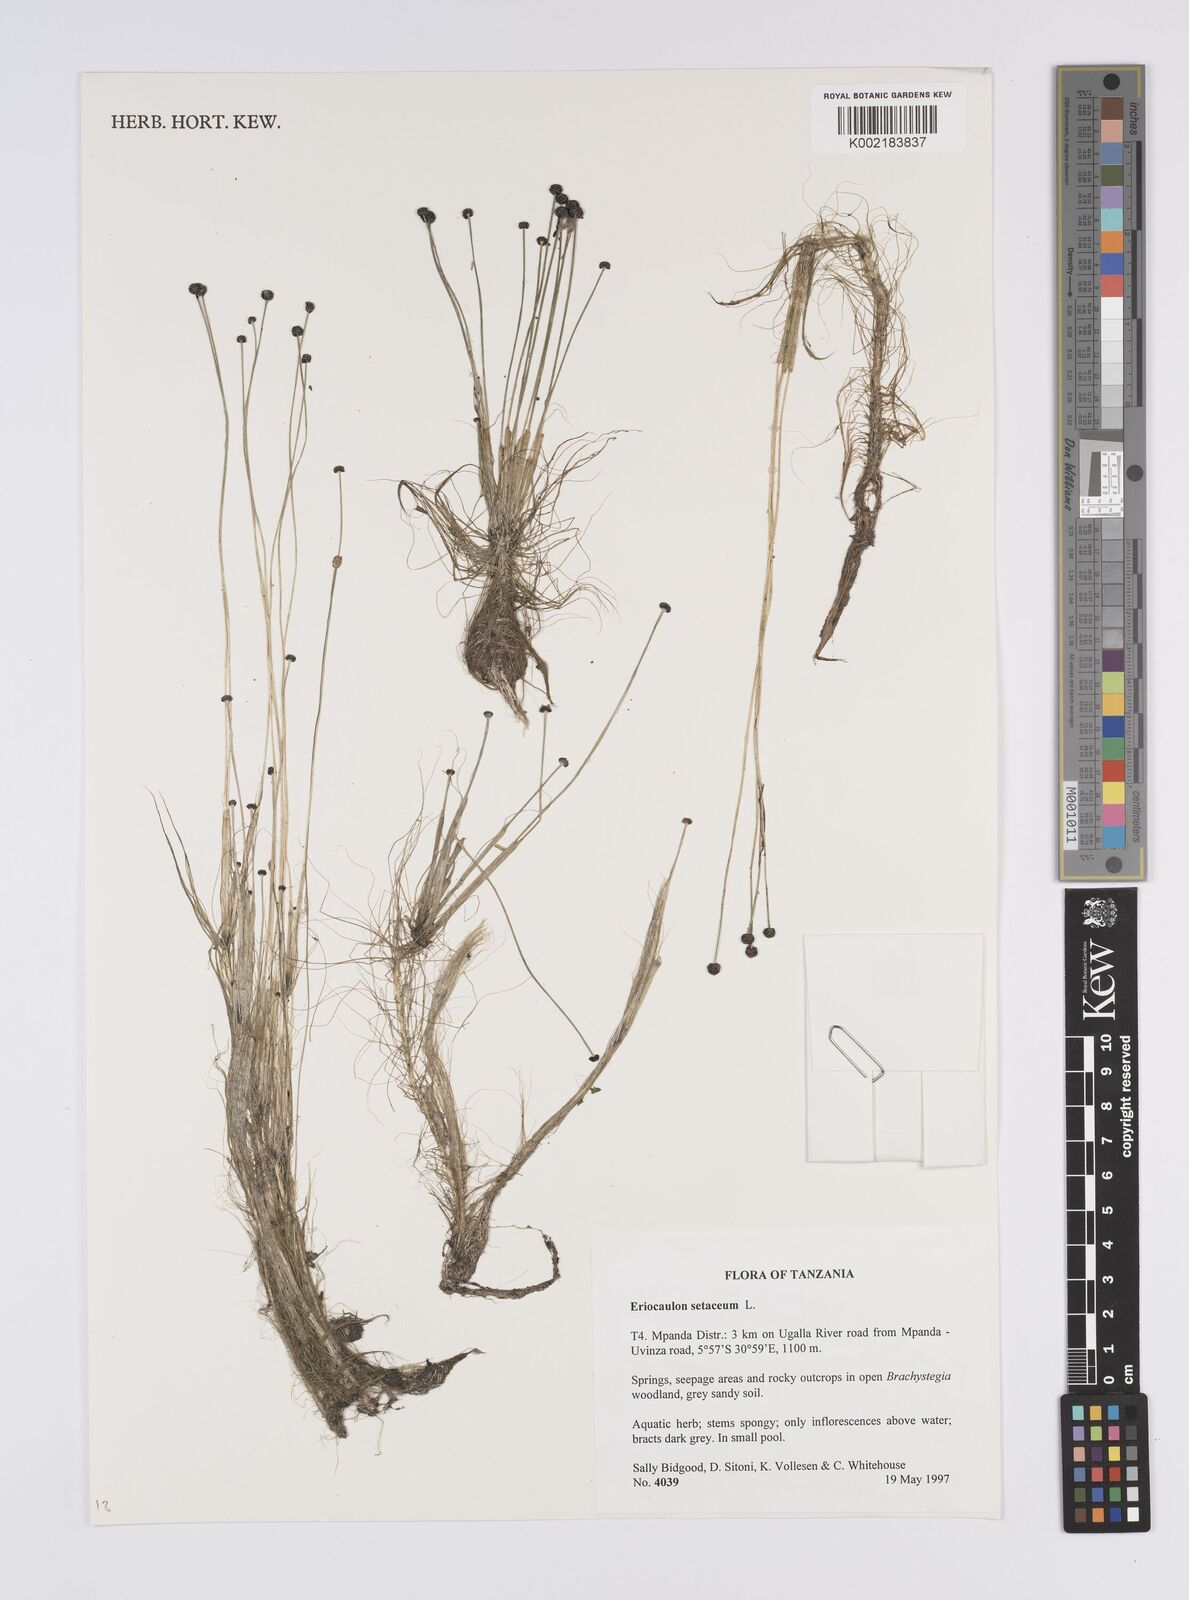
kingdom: Plantae
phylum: Tracheophyta
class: Liliopsida
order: Poales
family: Eriocaulaceae
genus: Eriocaulon
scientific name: Eriocaulon setaceum
